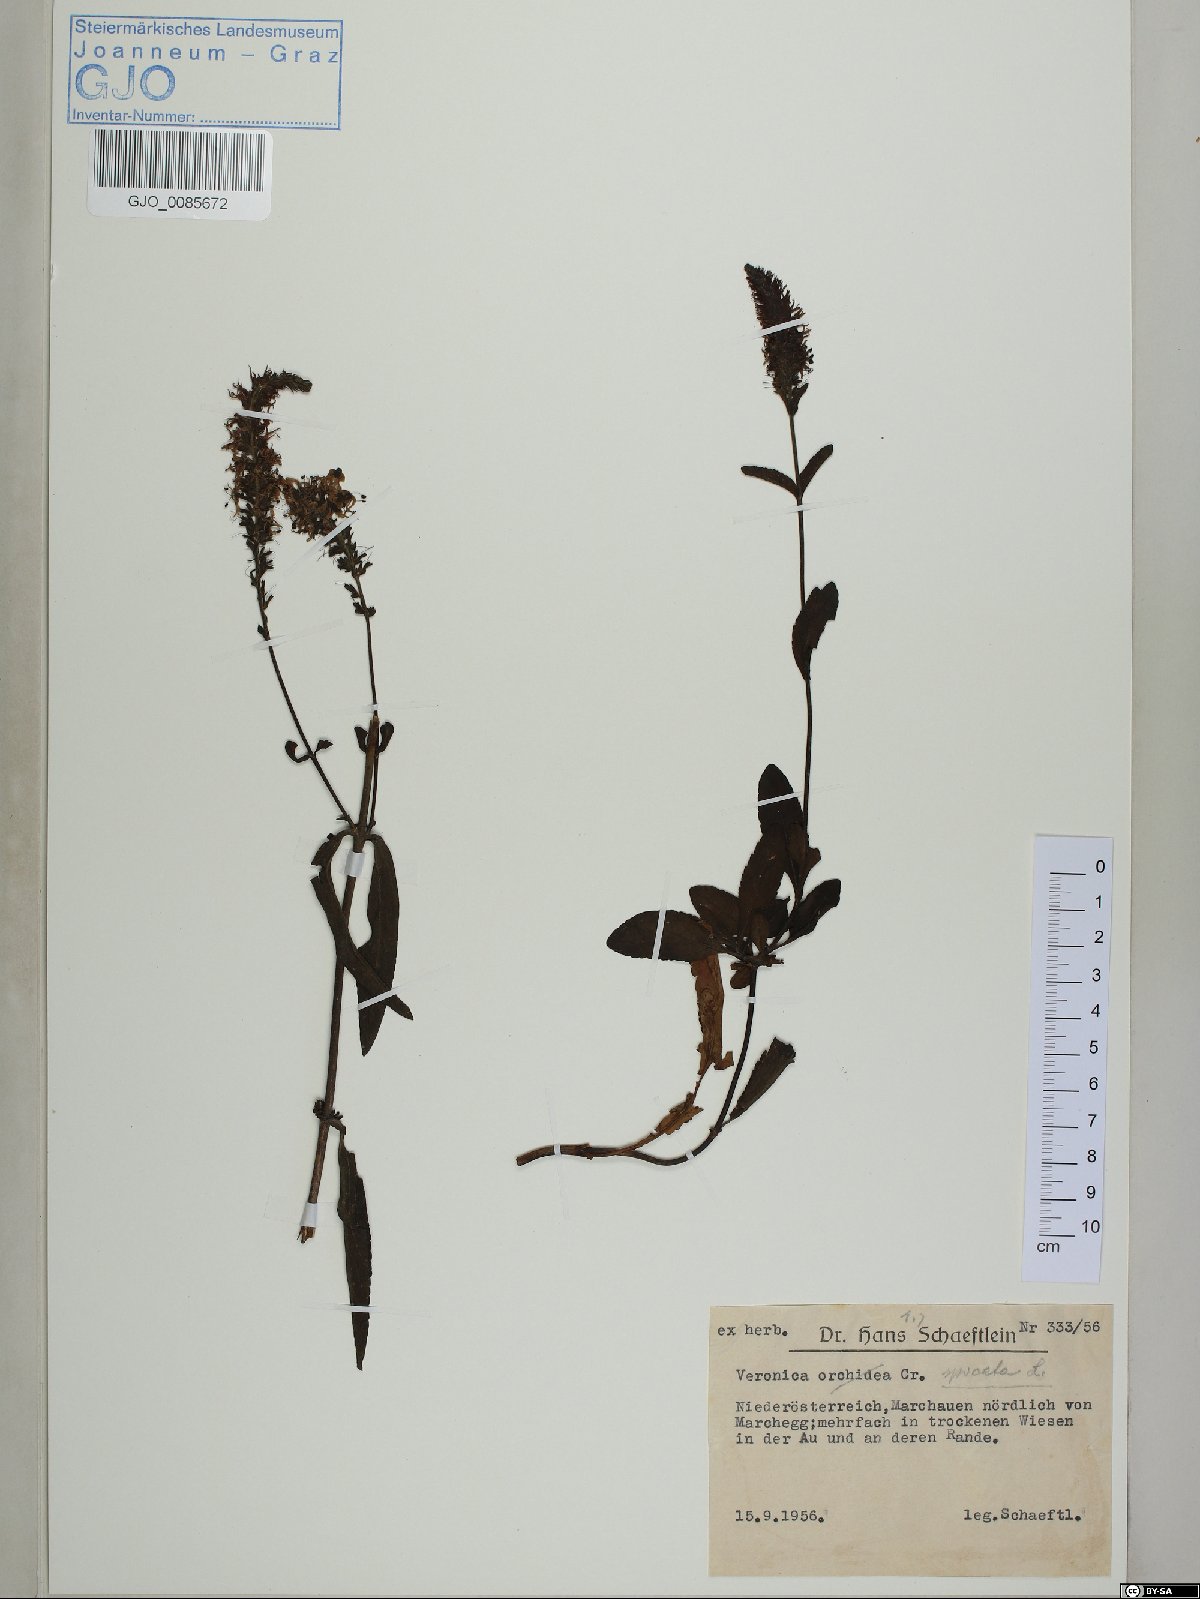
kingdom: Plantae
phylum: Tracheophyta
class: Magnoliopsida
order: Lamiales
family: Plantaginaceae
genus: Veronica
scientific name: Veronica spicata
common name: Spiked speedwell
